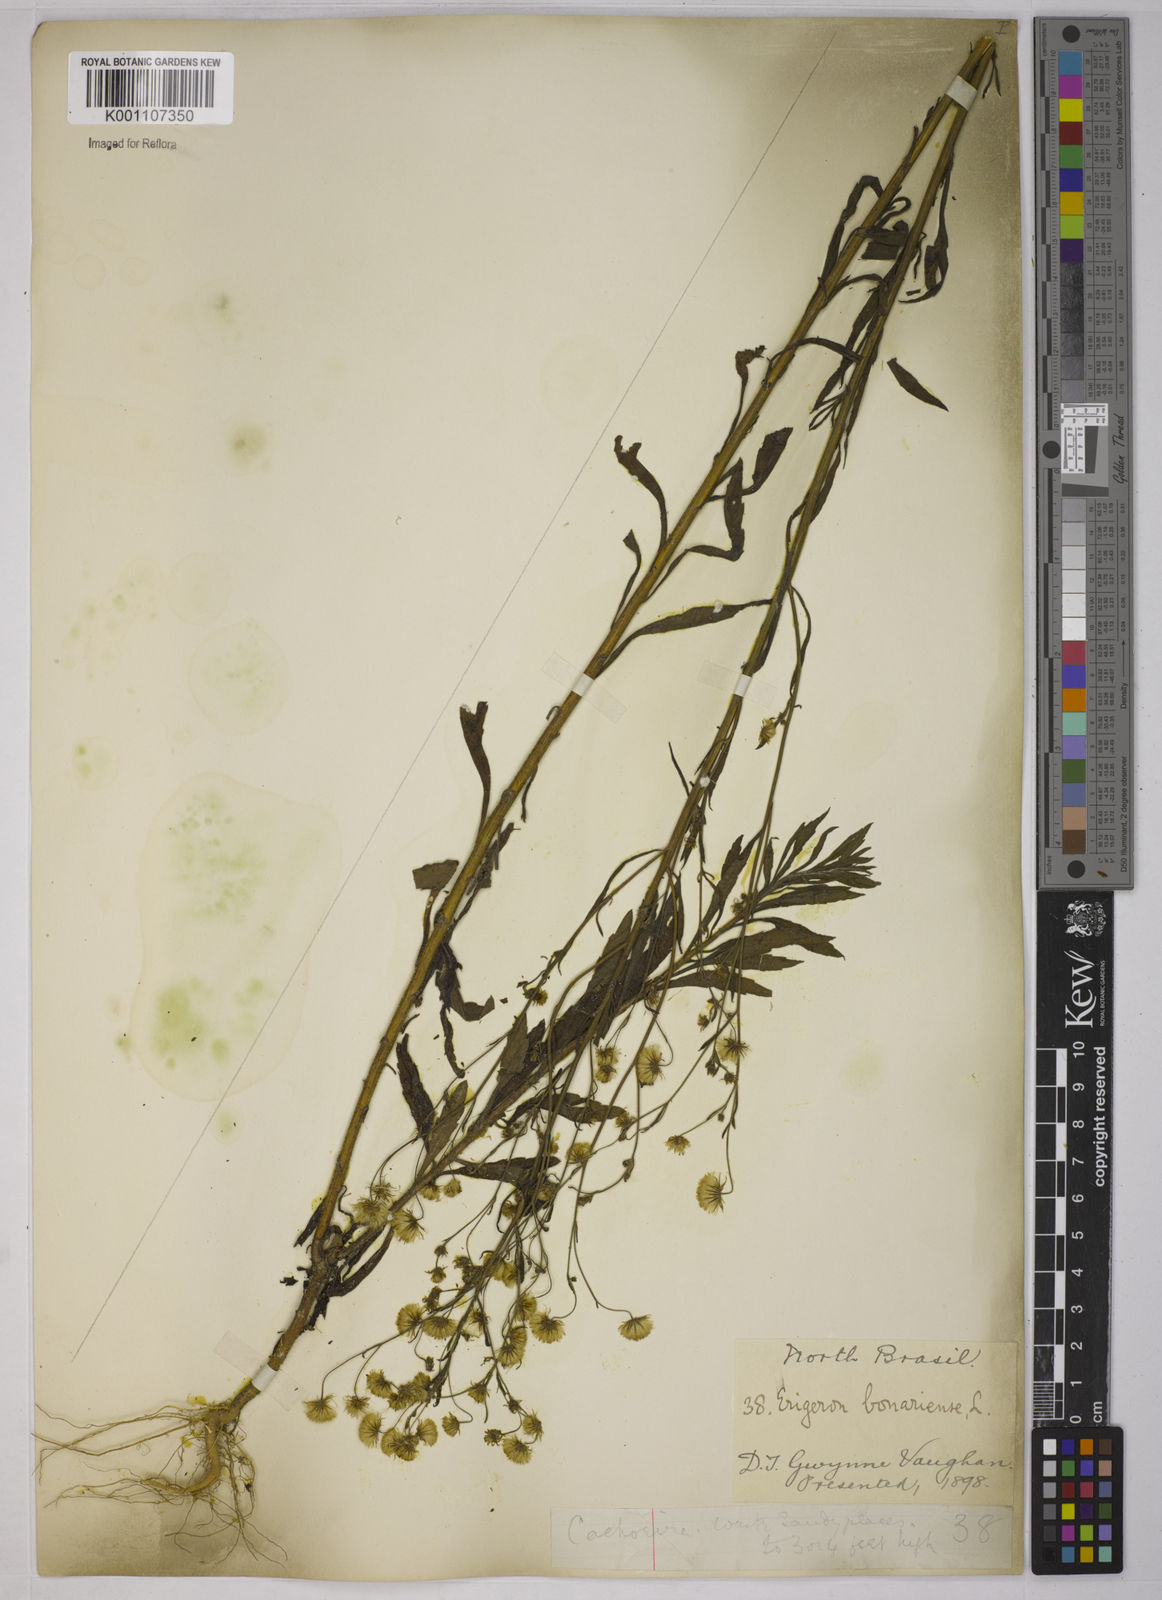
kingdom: Plantae
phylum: Tracheophyta
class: Magnoliopsida
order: Asterales
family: Asteraceae
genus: Erigeron
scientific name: Erigeron floribundus
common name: Bilbao fleabane
